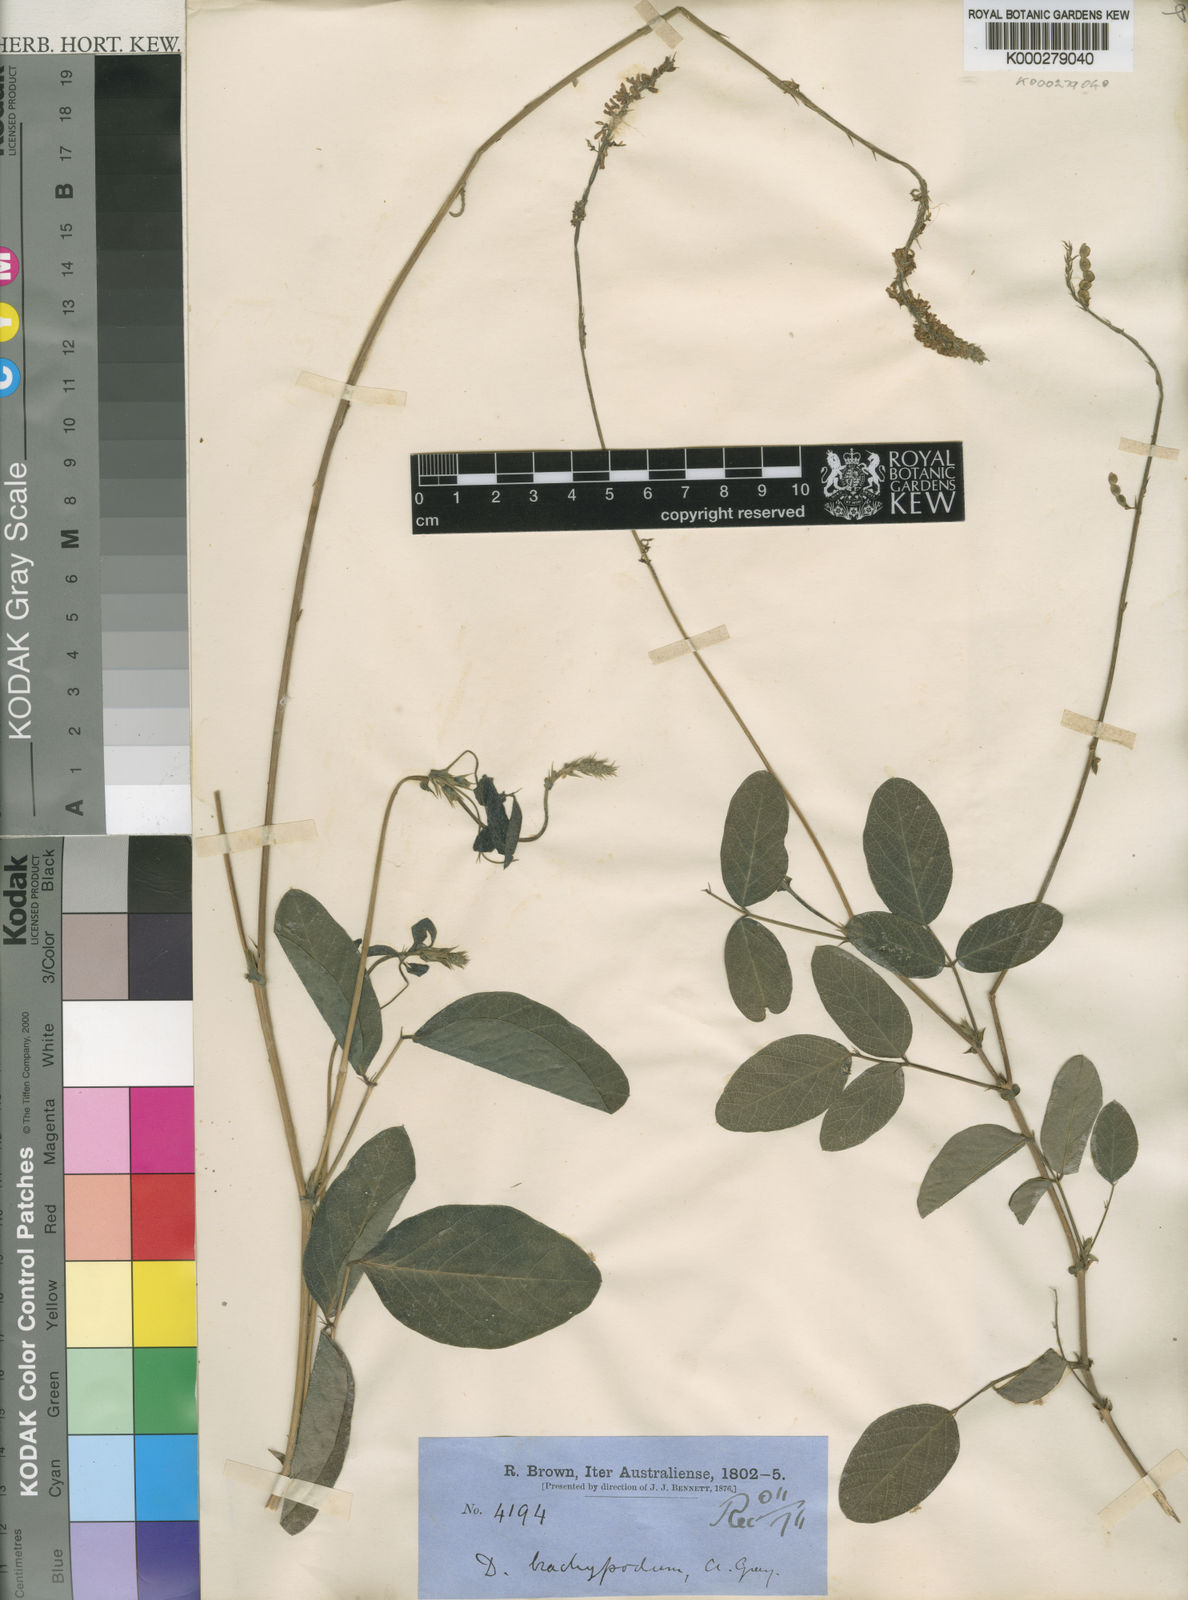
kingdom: Plantae
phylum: Tracheophyta
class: Magnoliopsida
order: Fabales
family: Fabaceae
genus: Oxytes
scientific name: Oxytes brachypoda
